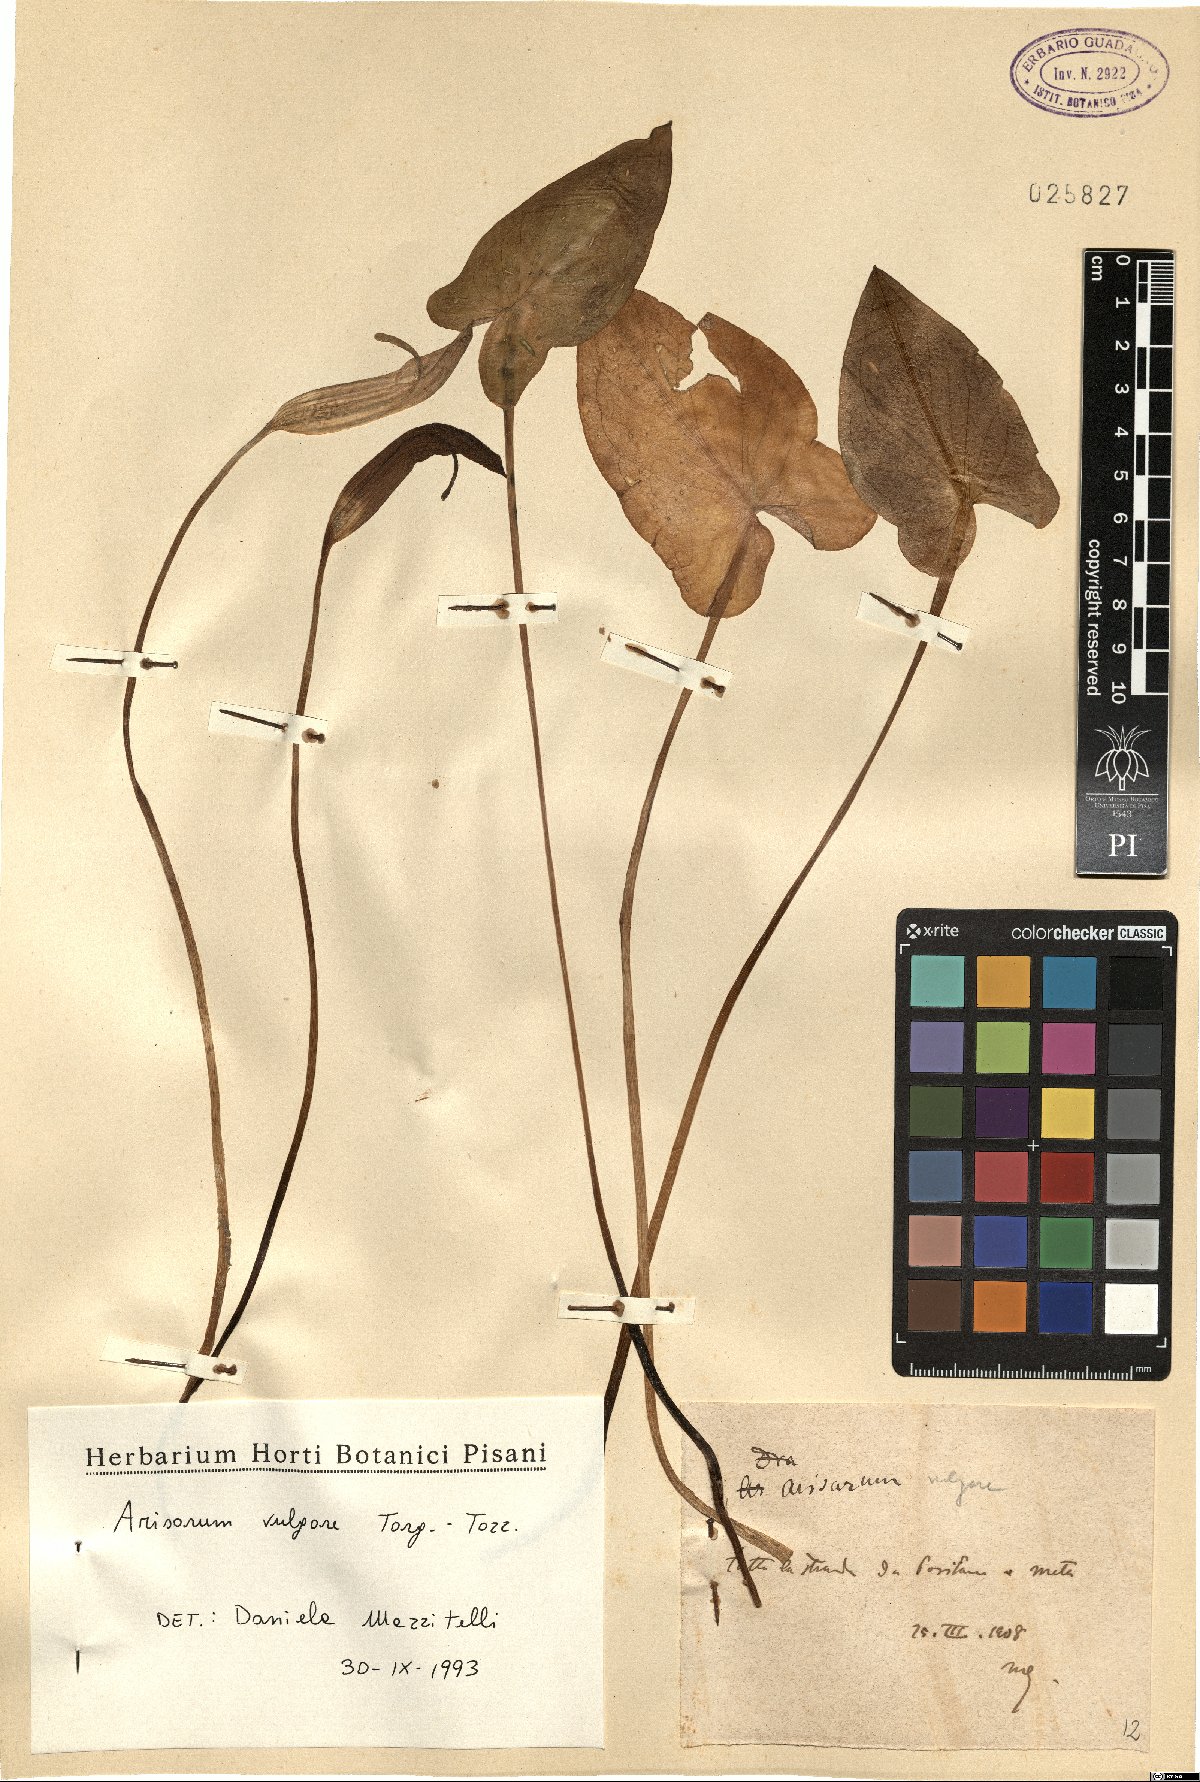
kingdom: Plantae
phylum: Tracheophyta
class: Liliopsida
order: Alismatales
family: Araceae
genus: Arisarum
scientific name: Arisarum vulgare
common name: Common arisarum
